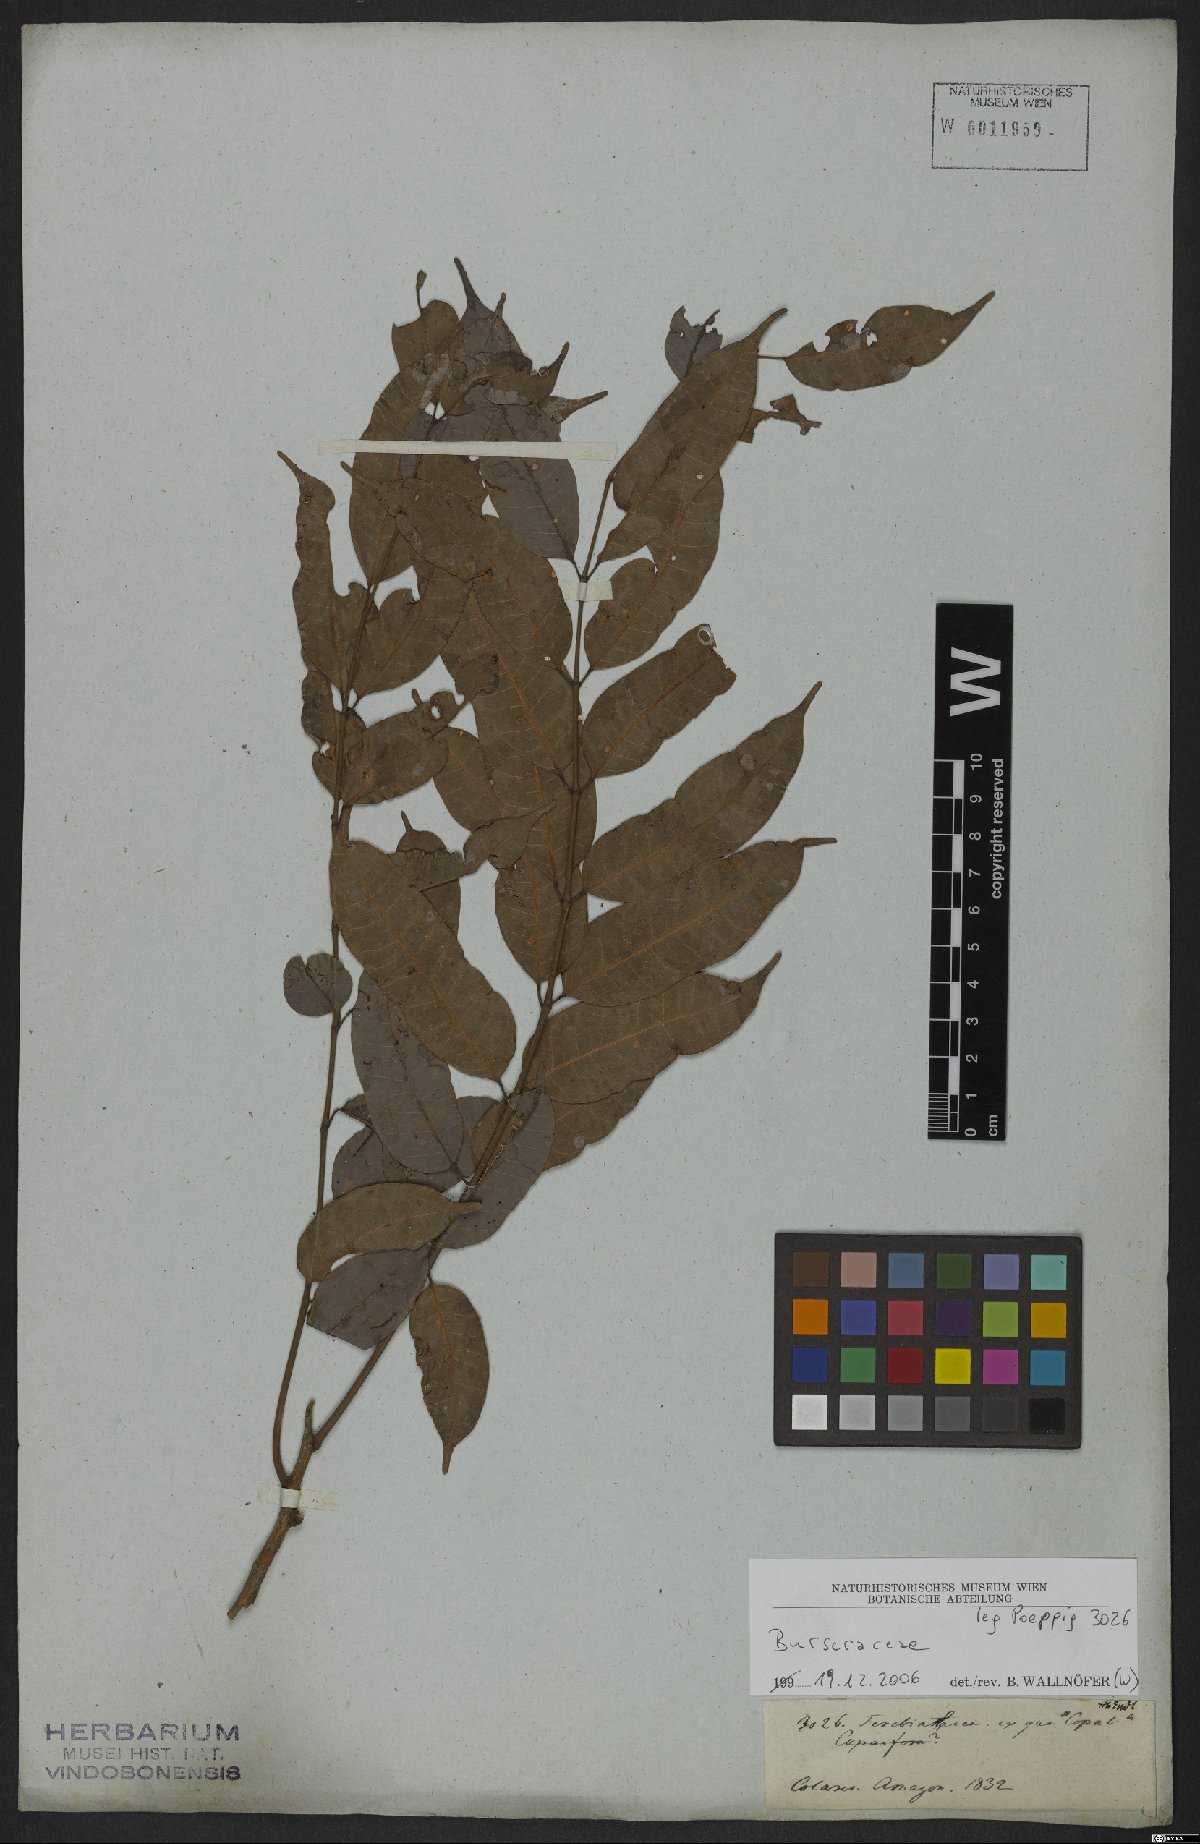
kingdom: Plantae
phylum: Tracheophyta
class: Magnoliopsida
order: Sapindales
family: Burseraceae
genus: Protium
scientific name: Protium altsonii
